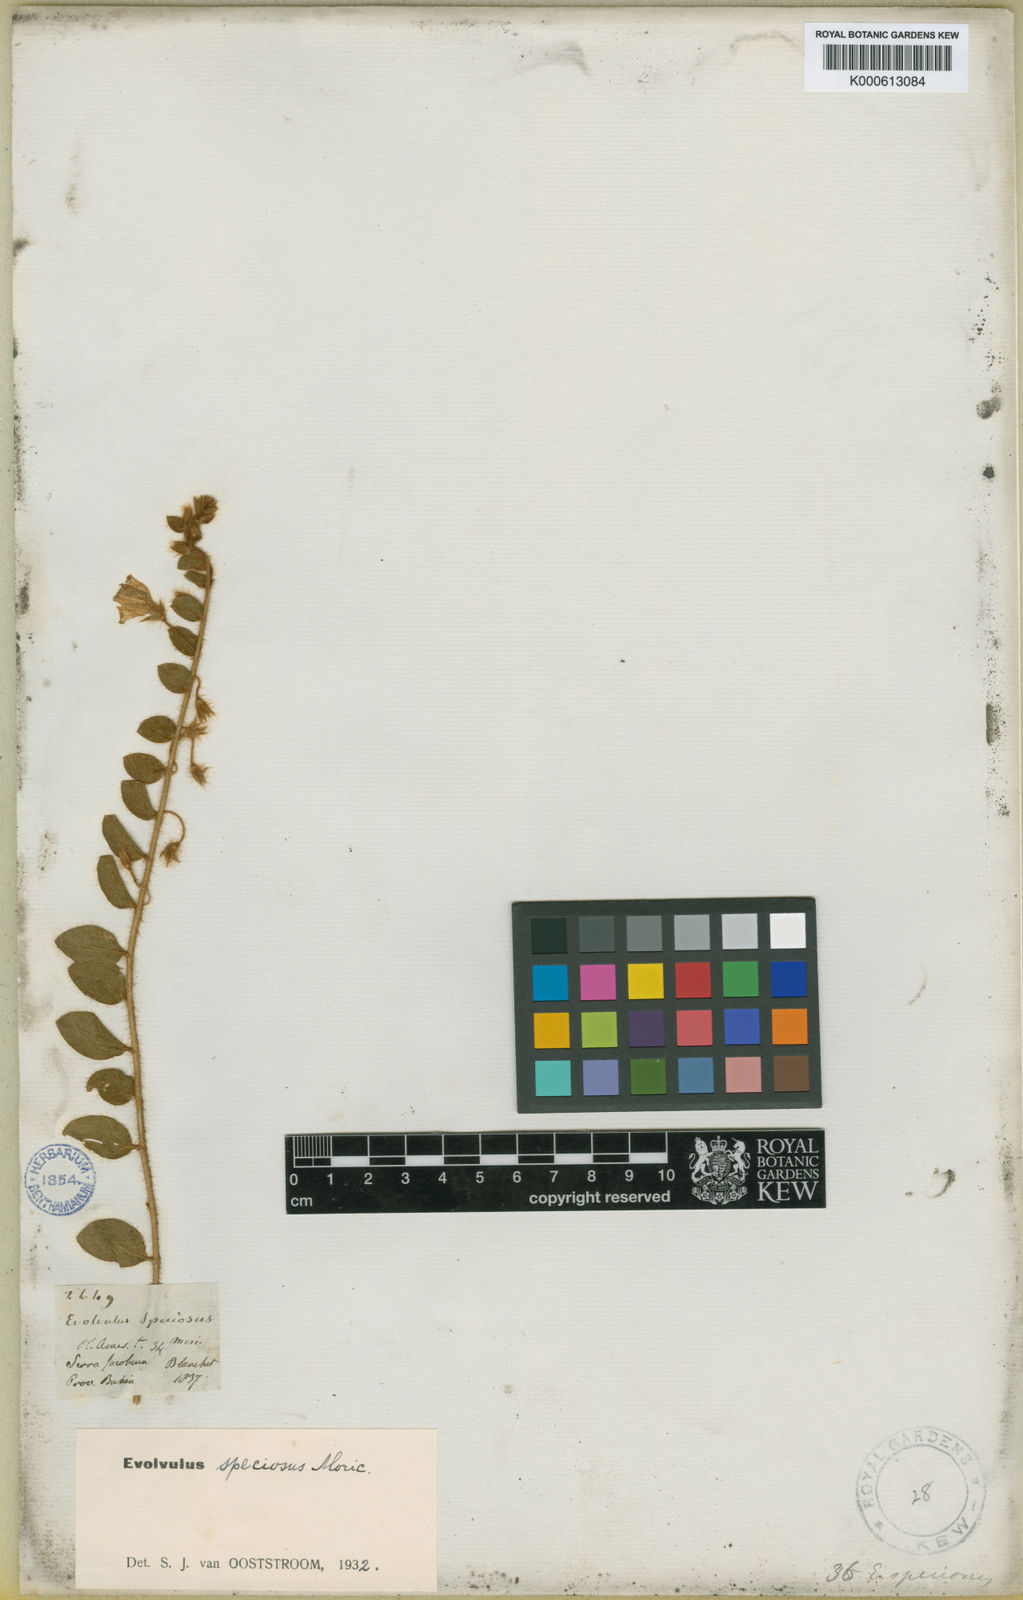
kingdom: Plantae
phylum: Tracheophyta
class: Magnoliopsida
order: Solanales
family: Convolvulaceae
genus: Evolvulus
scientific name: Evolvulus speciosus
